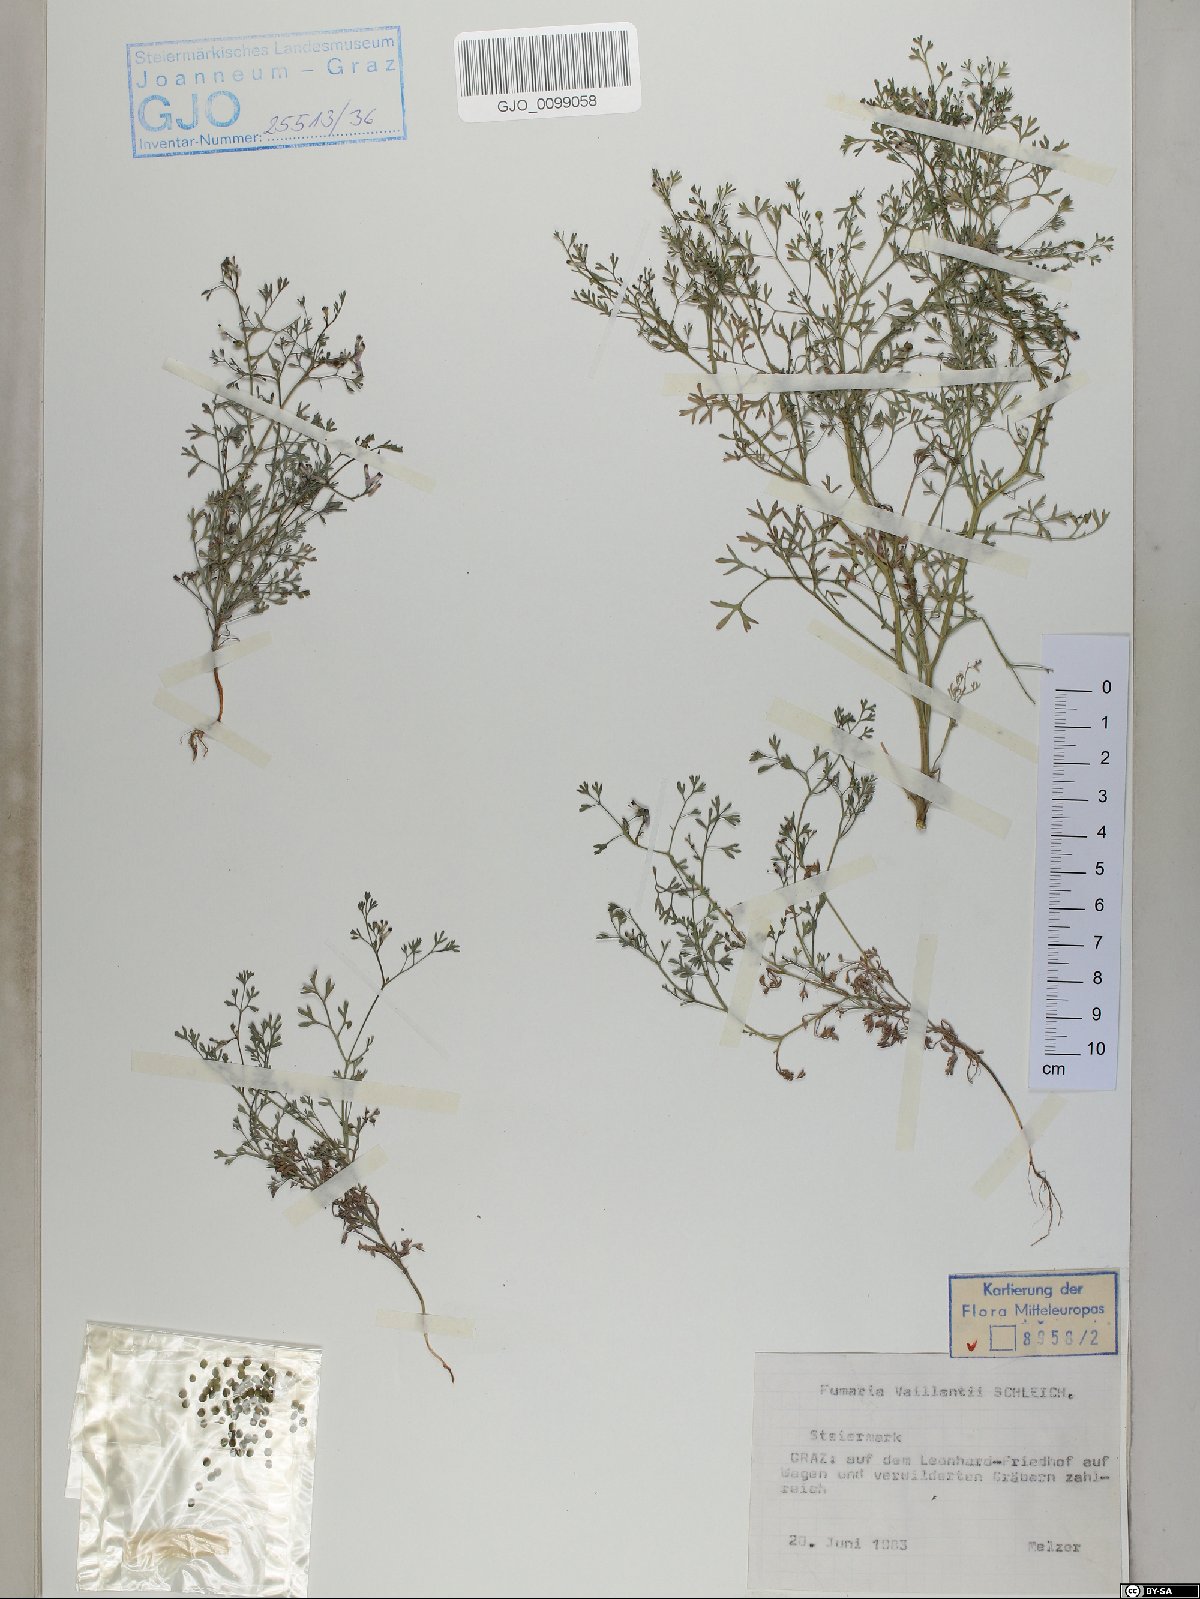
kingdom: Plantae
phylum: Tracheophyta
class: Magnoliopsida
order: Ranunculales
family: Papaveraceae
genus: Fumaria
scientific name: Fumaria vaillantii
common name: Few-flowered fumitory
